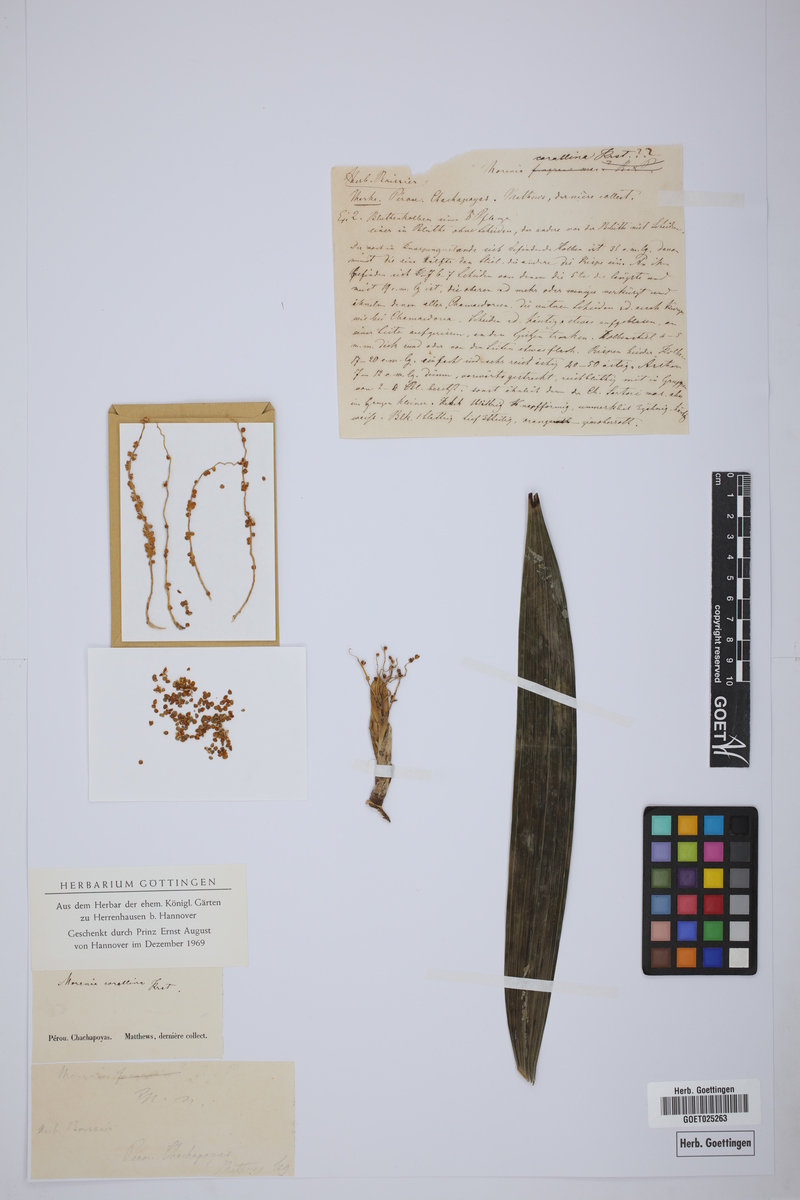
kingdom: Plantae
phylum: Tracheophyta
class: Liliopsida
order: Arecales
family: Arecaceae
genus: Chamaedorea
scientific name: Chamaedorea linearis
